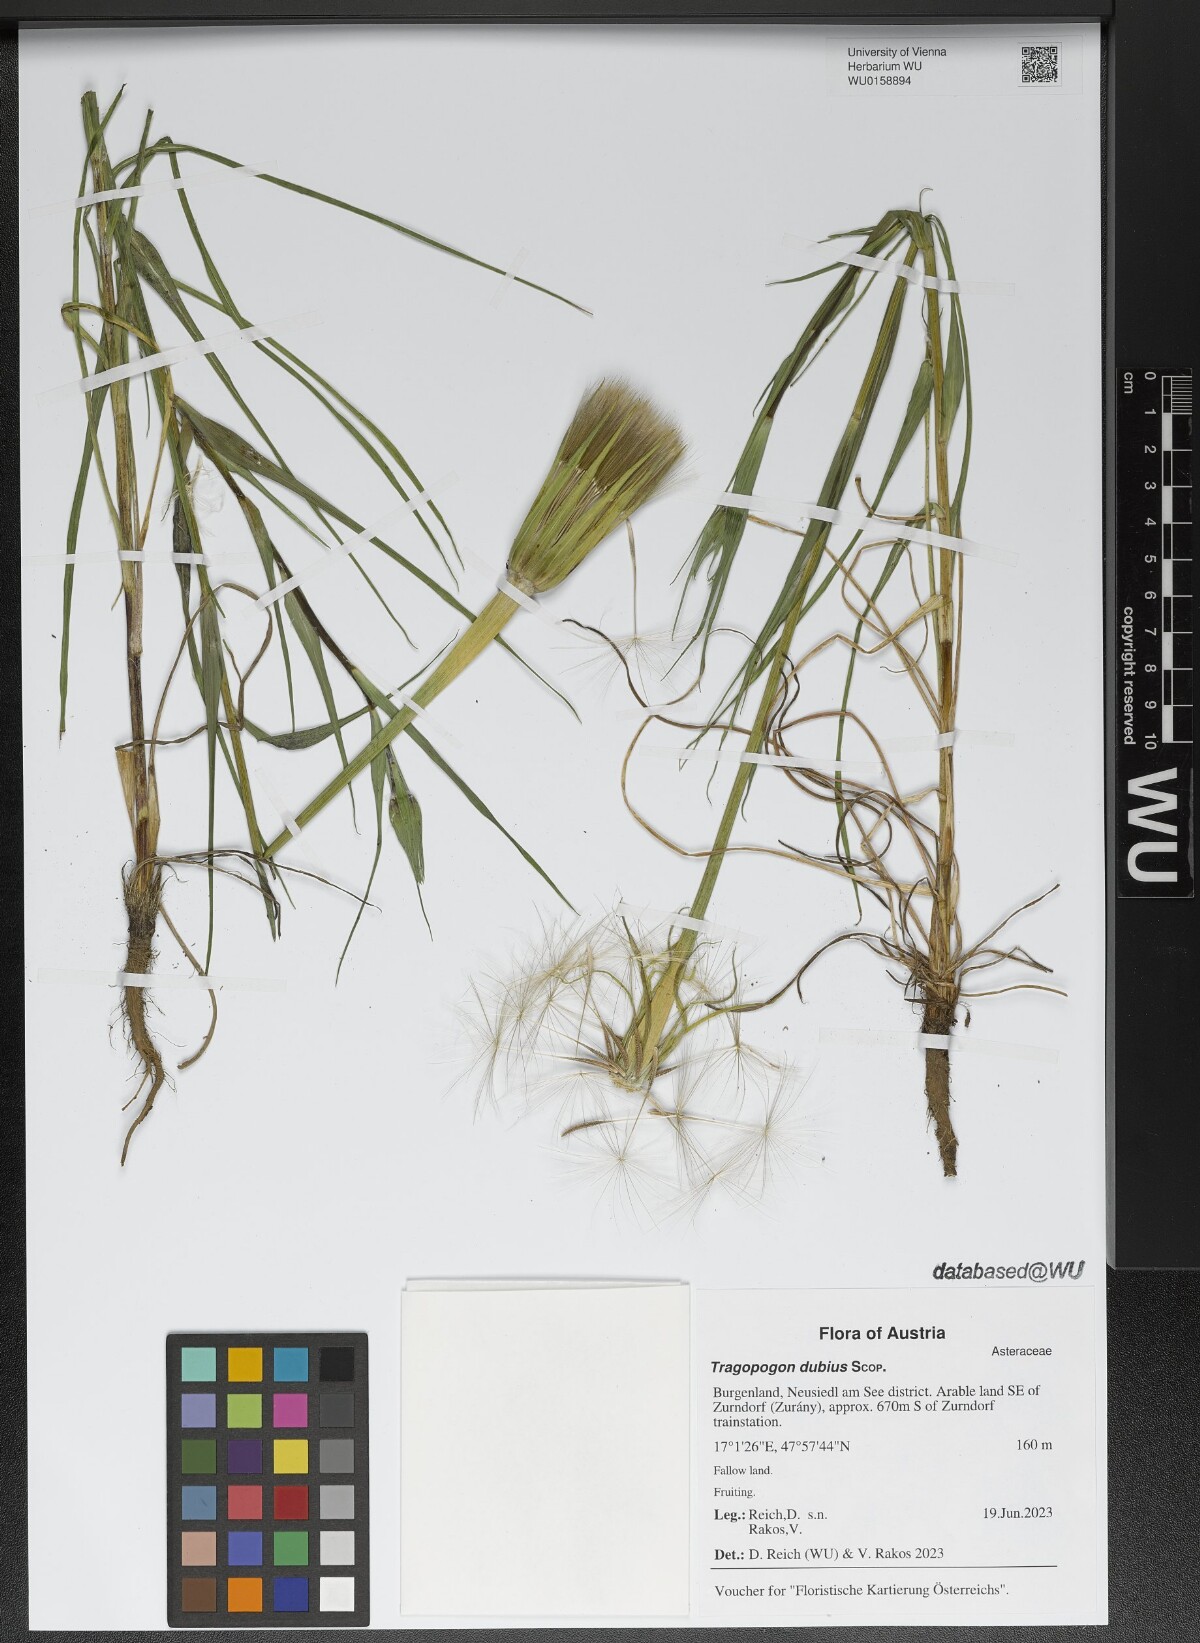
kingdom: Plantae
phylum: Tracheophyta
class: Magnoliopsida
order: Asterales
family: Asteraceae
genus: Tragopogon
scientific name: Tragopogon dubius
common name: Yellow salsify
